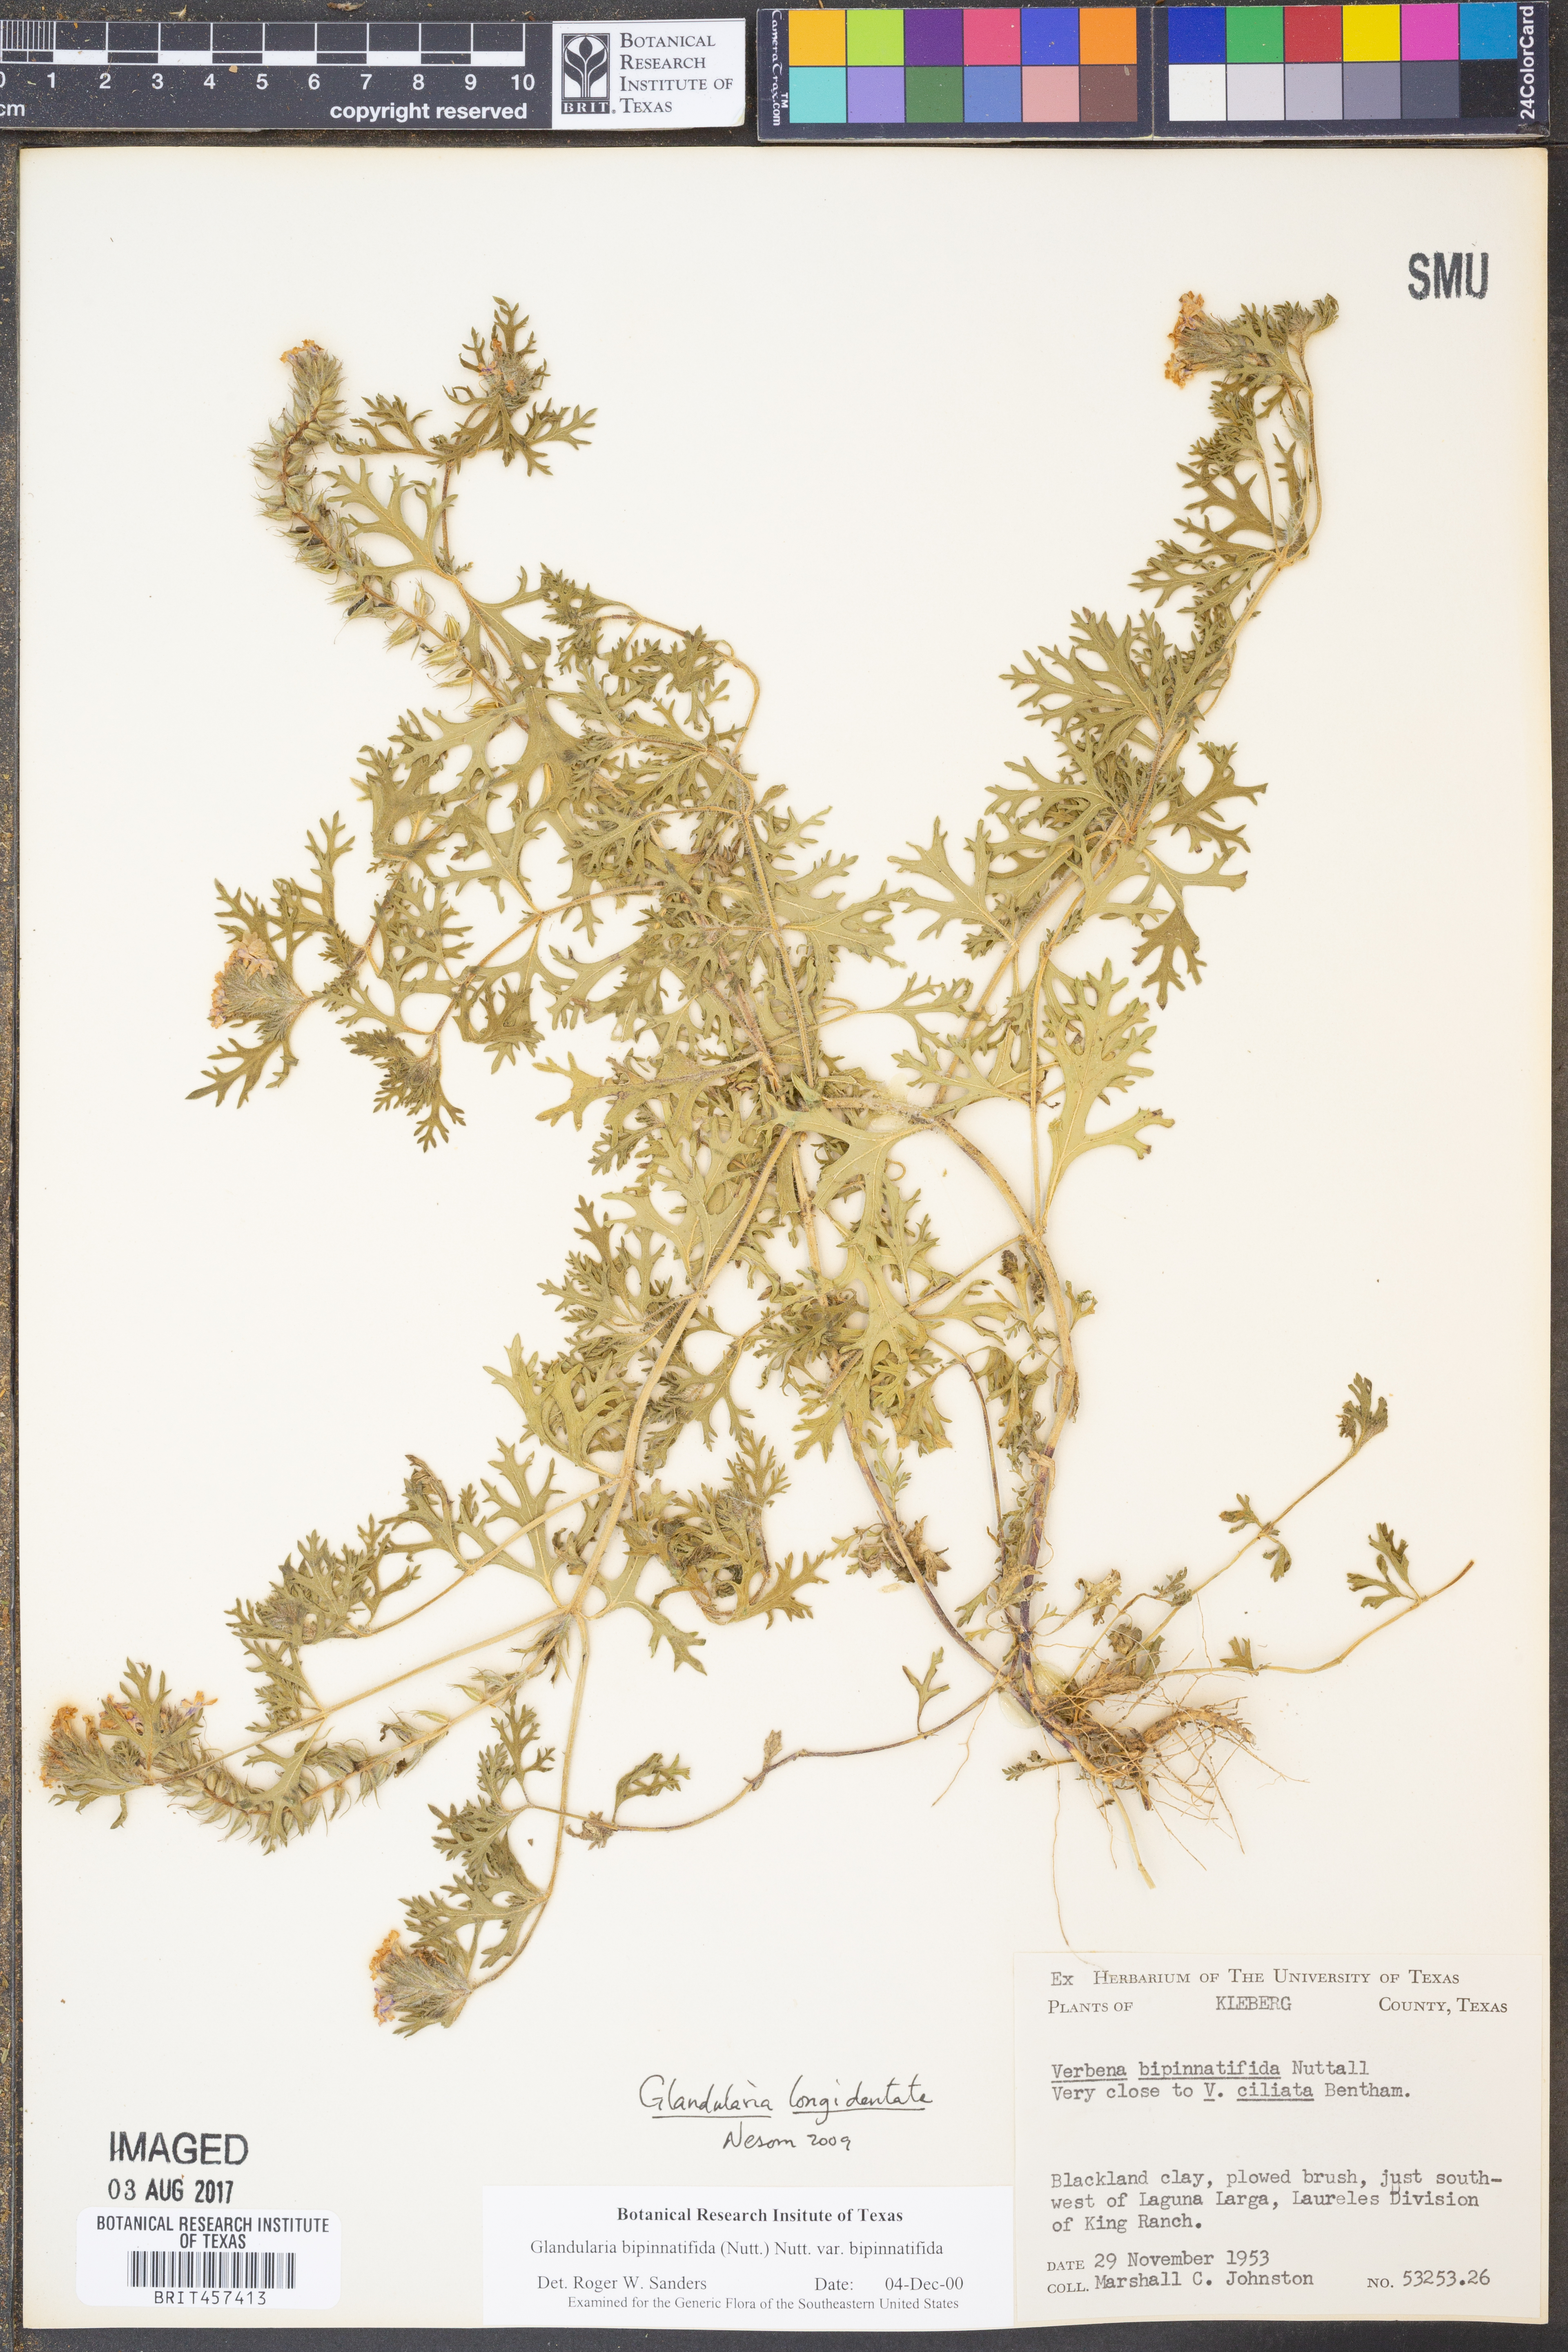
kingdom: Plantae
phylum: Tracheophyta
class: Magnoliopsida
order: Lamiales
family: Verbenaceae
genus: Verbena
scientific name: Verbena polyantha
